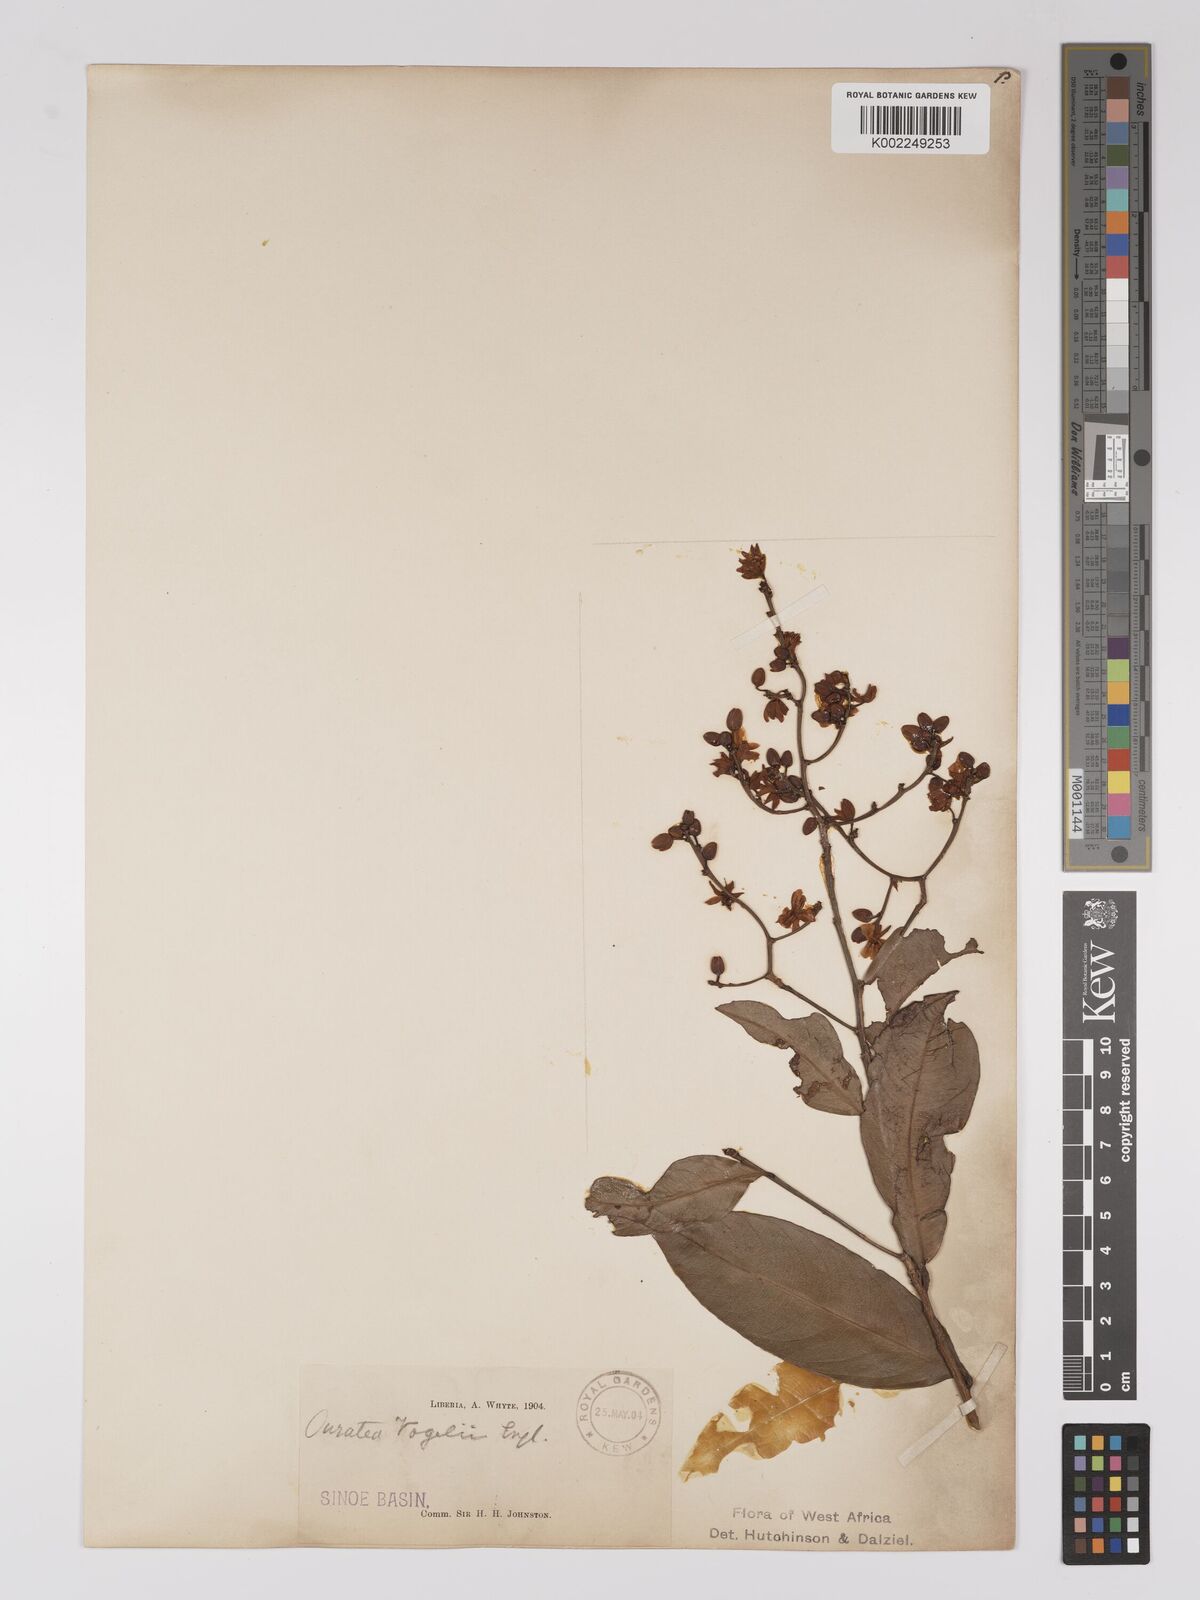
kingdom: Plantae
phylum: Tracheophyta
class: Magnoliopsida
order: Malpighiales
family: Ochnaceae
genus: Campylospermum
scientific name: Campylospermum vogelii
